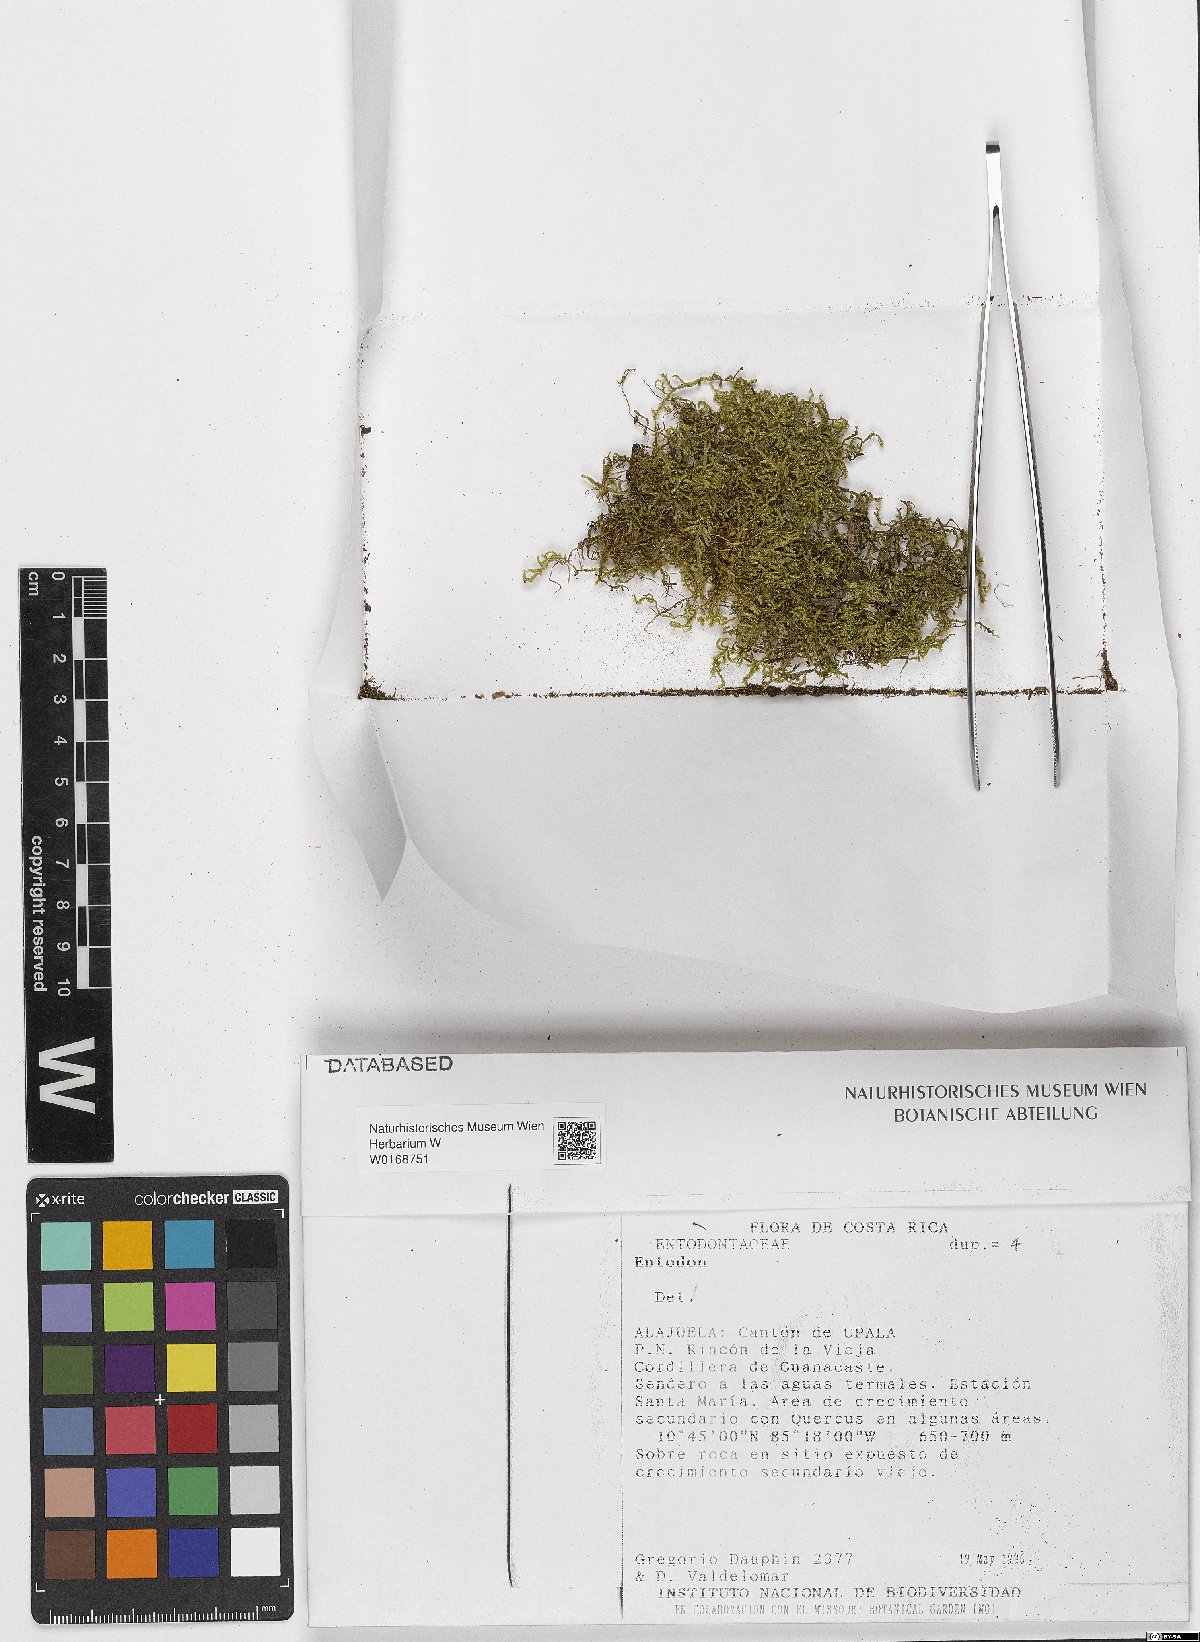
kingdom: Plantae
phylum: Bryophyta
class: Bryopsida
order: Hypnales
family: Entodontaceae
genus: Entodon
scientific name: Entodon
